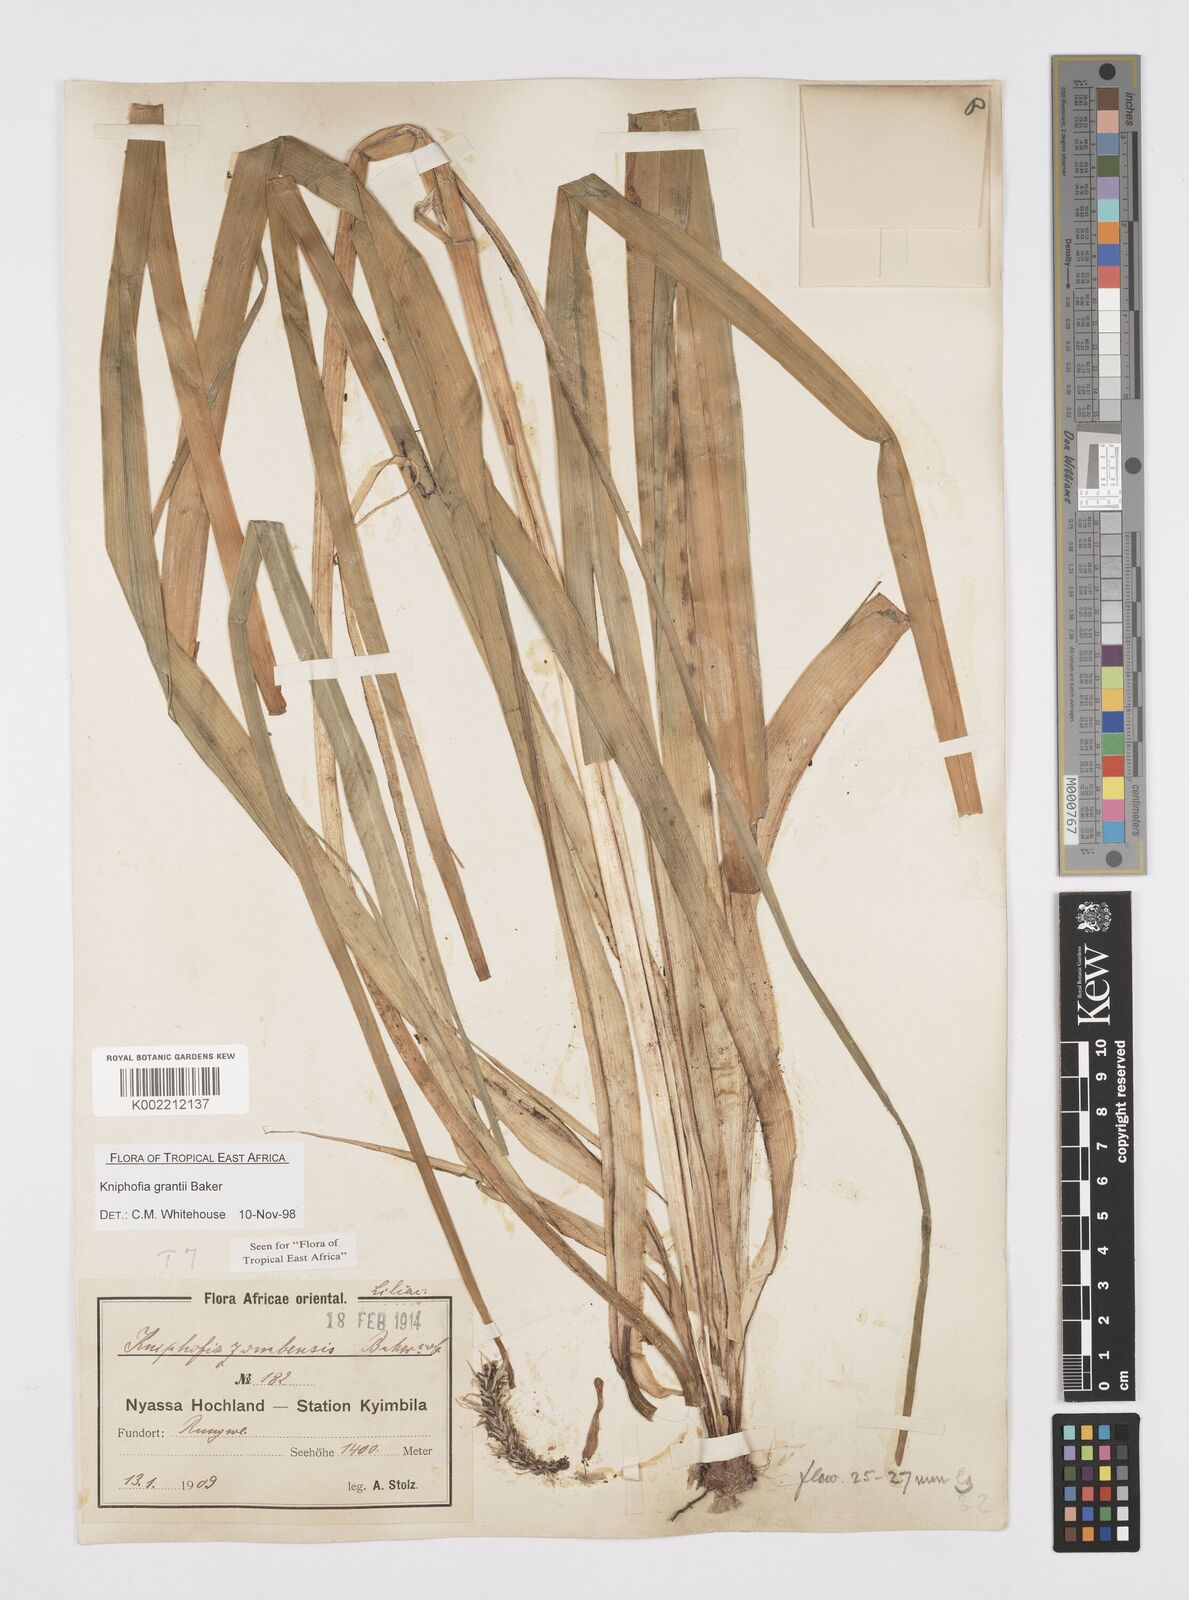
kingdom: Plantae
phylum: Tracheophyta
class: Liliopsida
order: Asparagales
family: Asphodelaceae
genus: Kniphofia
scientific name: Kniphofia grantii
